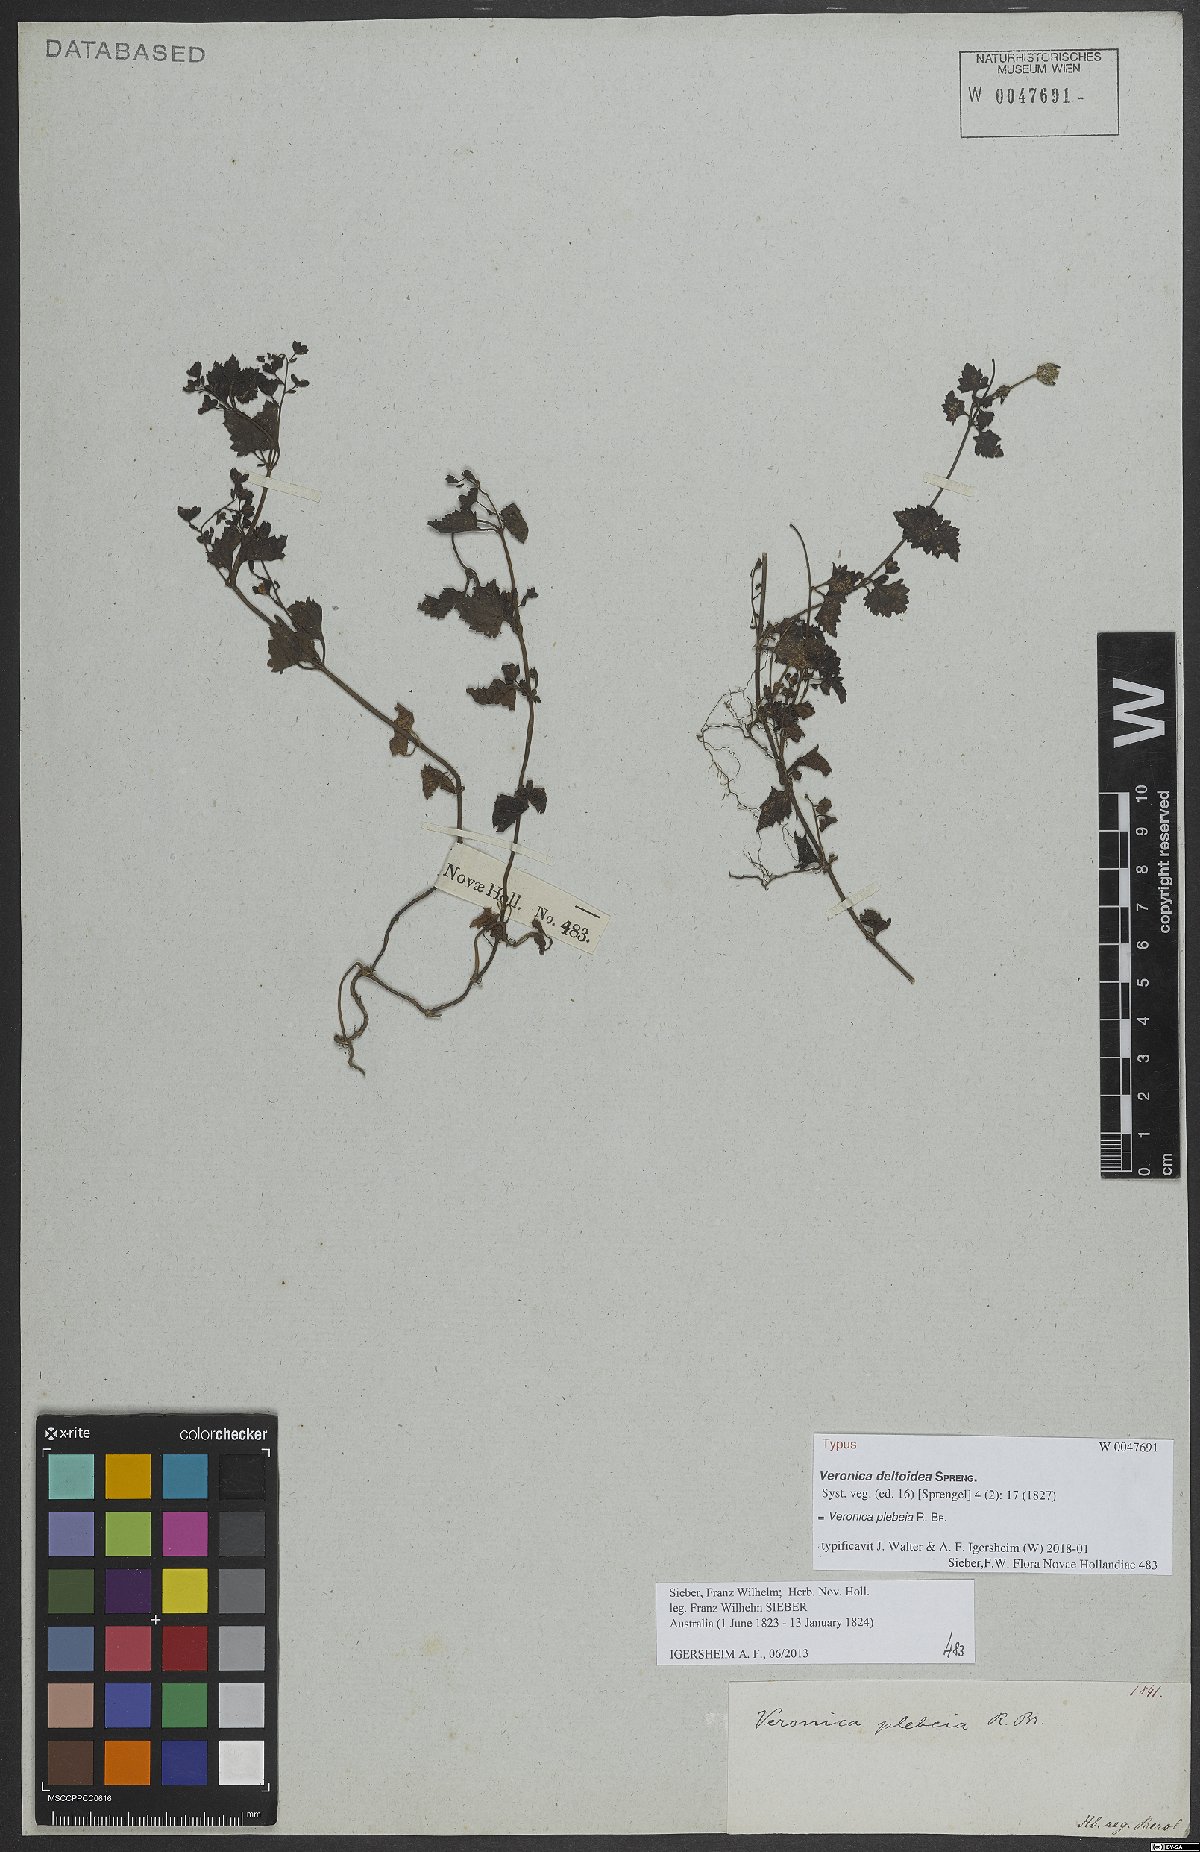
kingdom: Plantae
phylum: Tracheophyta
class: Magnoliopsida
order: Lamiales
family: Plantaginaceae
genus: Veronica
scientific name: Veronica plebeia
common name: Speedwell
